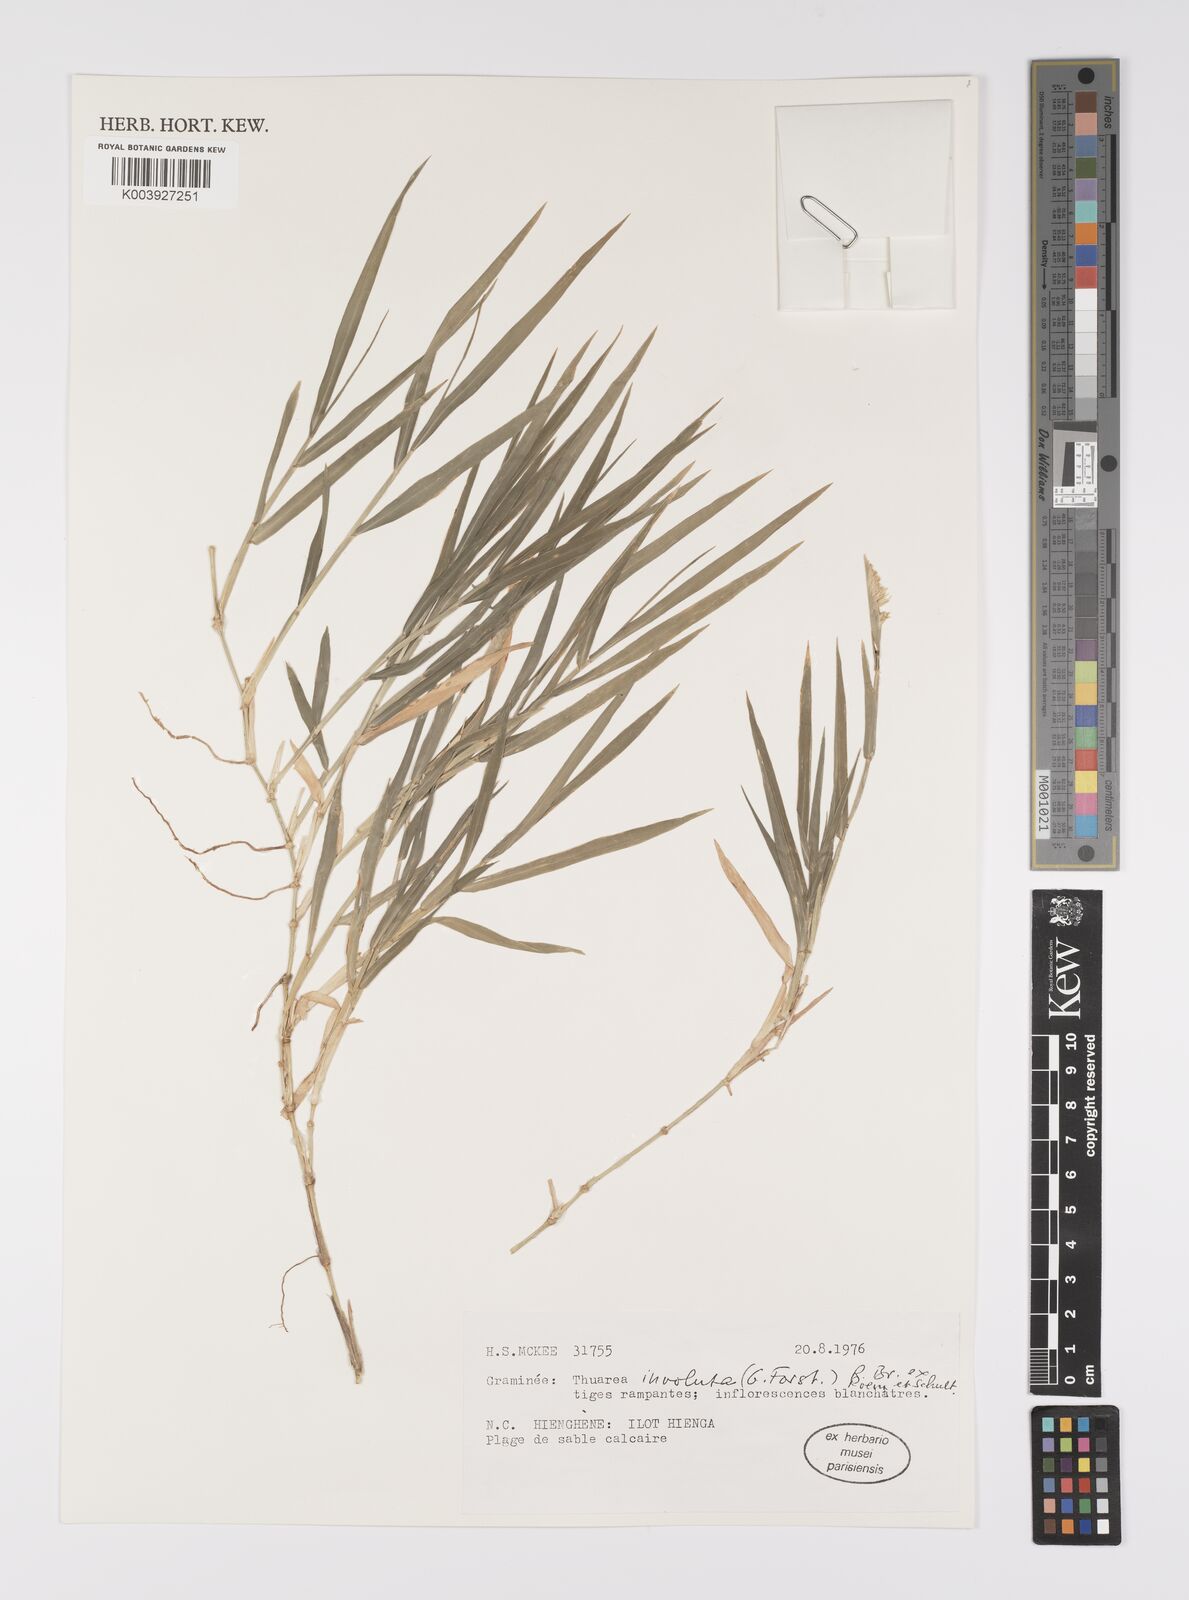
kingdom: Plantae
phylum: Tracheophyta
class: Liliopsida
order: Poales
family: Poaceae
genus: Thuarea
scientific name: Thuarea involuta
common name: Tropical beach grass
